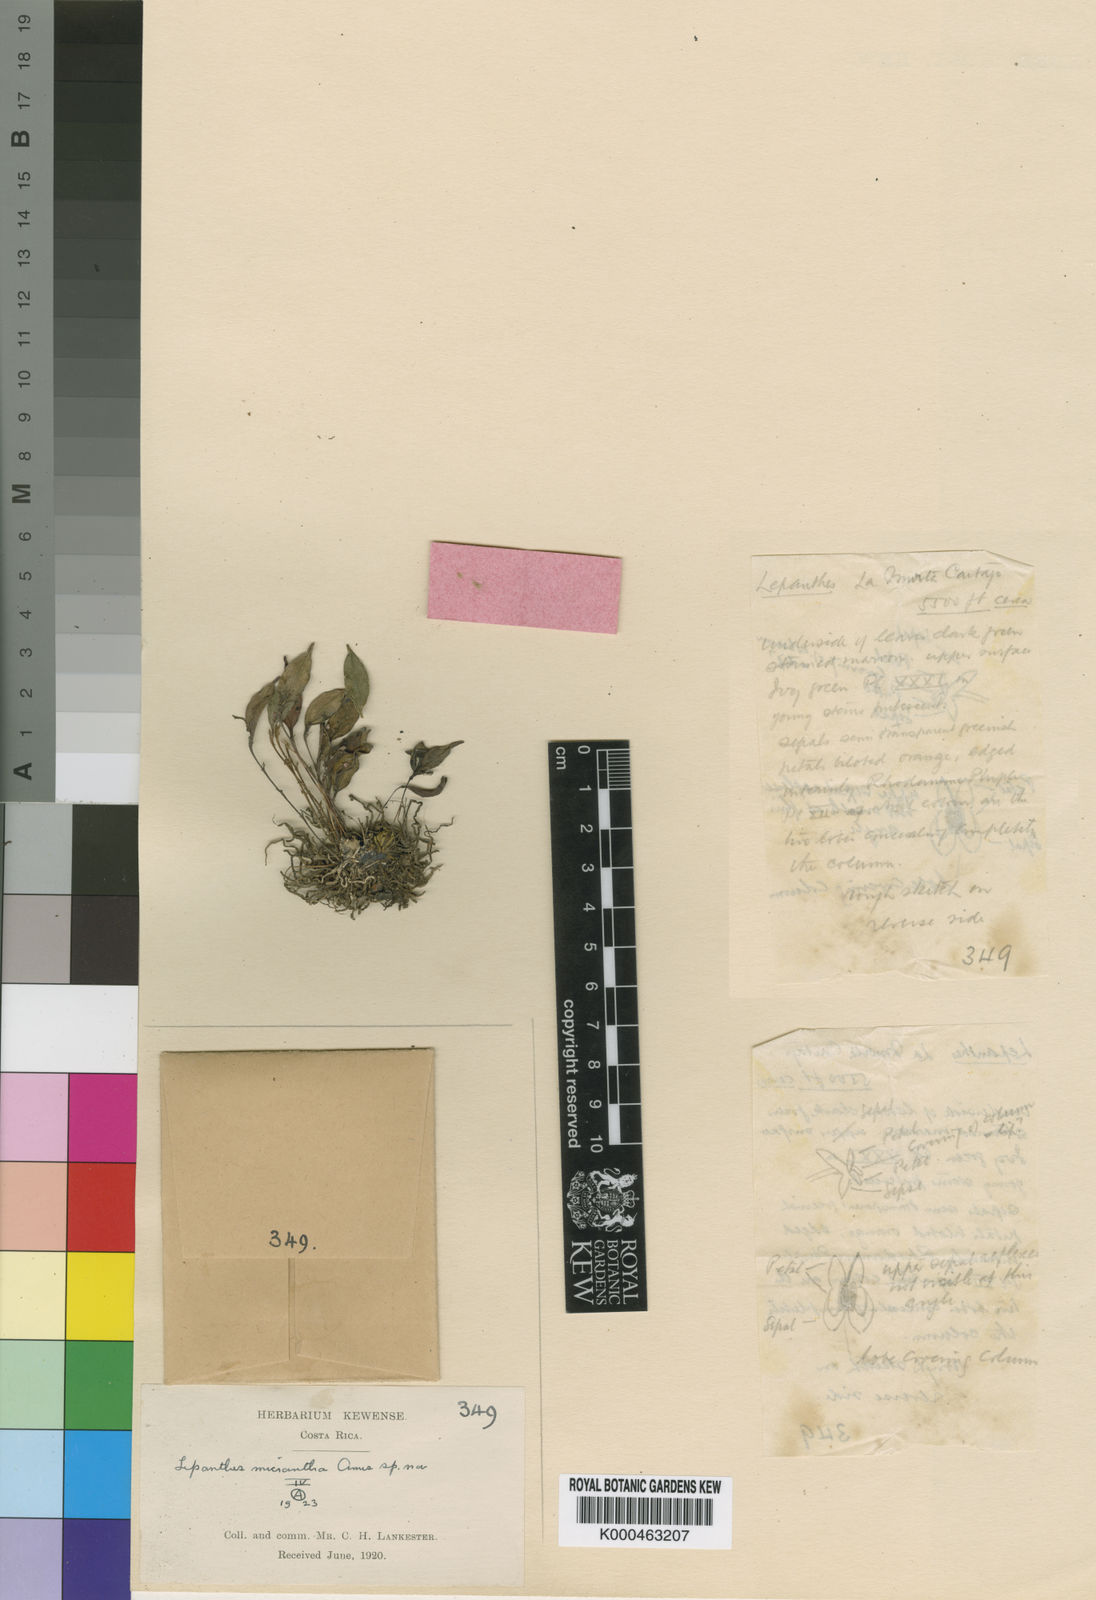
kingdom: Plantae
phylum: Tracheophyta
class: Liliopsida
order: Asparagales
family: Orchidaceae
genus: Lepanthes
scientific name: Lepanthes lindleyana
